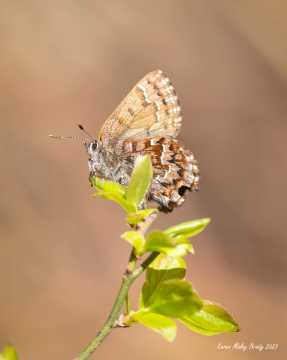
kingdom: Animalia
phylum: Arthropoda
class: Insecta
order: Lepidoptera
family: Lycaenidae
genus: Incisalia
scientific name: Incisalia niphon
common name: Eastern Pine Elfin
